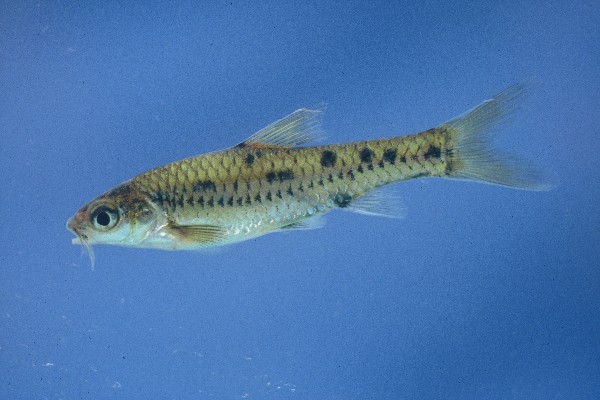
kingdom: Animalia
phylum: Chordata
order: Cypriniformes
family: Cyprinidae
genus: Enteromius
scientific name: Enteromius lineomaculatus
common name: Line-spotted barb
